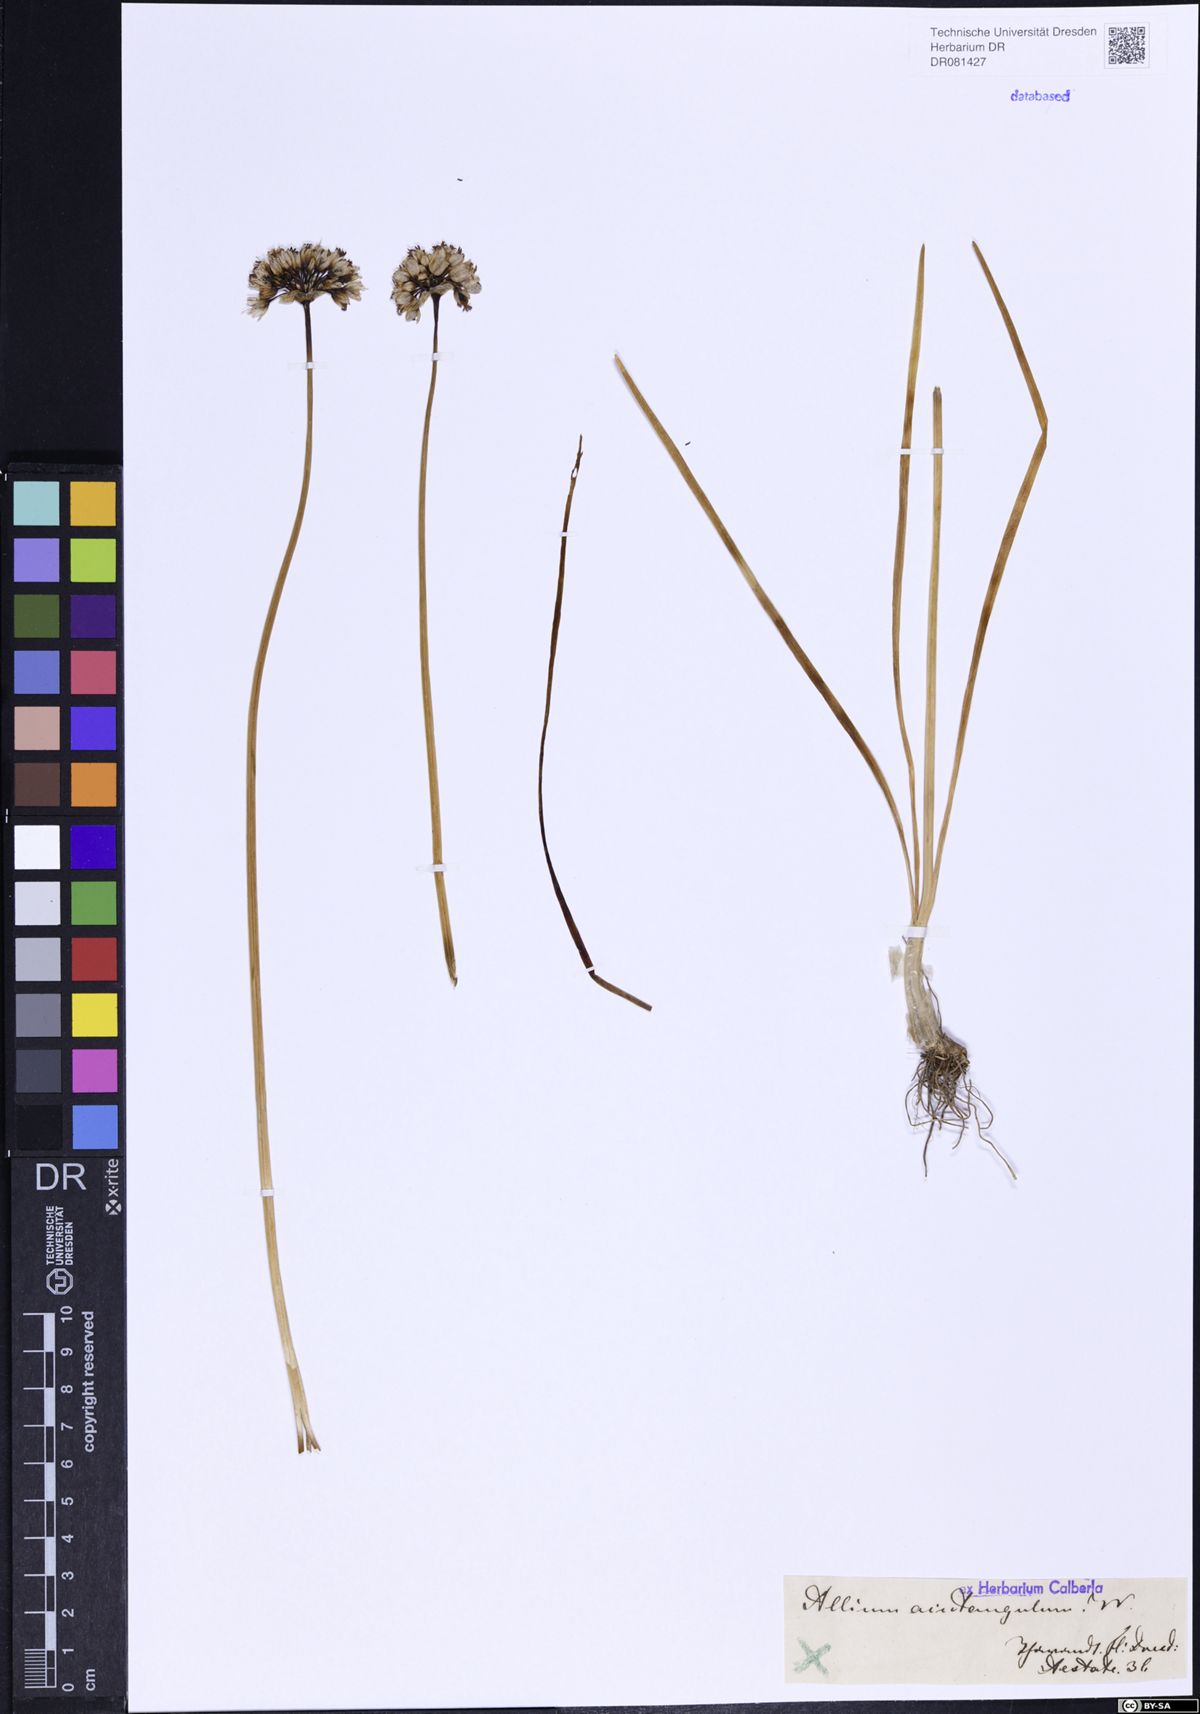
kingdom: Plantae
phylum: Tracheophyta
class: Liliopsida
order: Asparagales
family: Amaryllidaceae
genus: Allium
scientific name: Allium angulosum
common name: Mouse garlic
